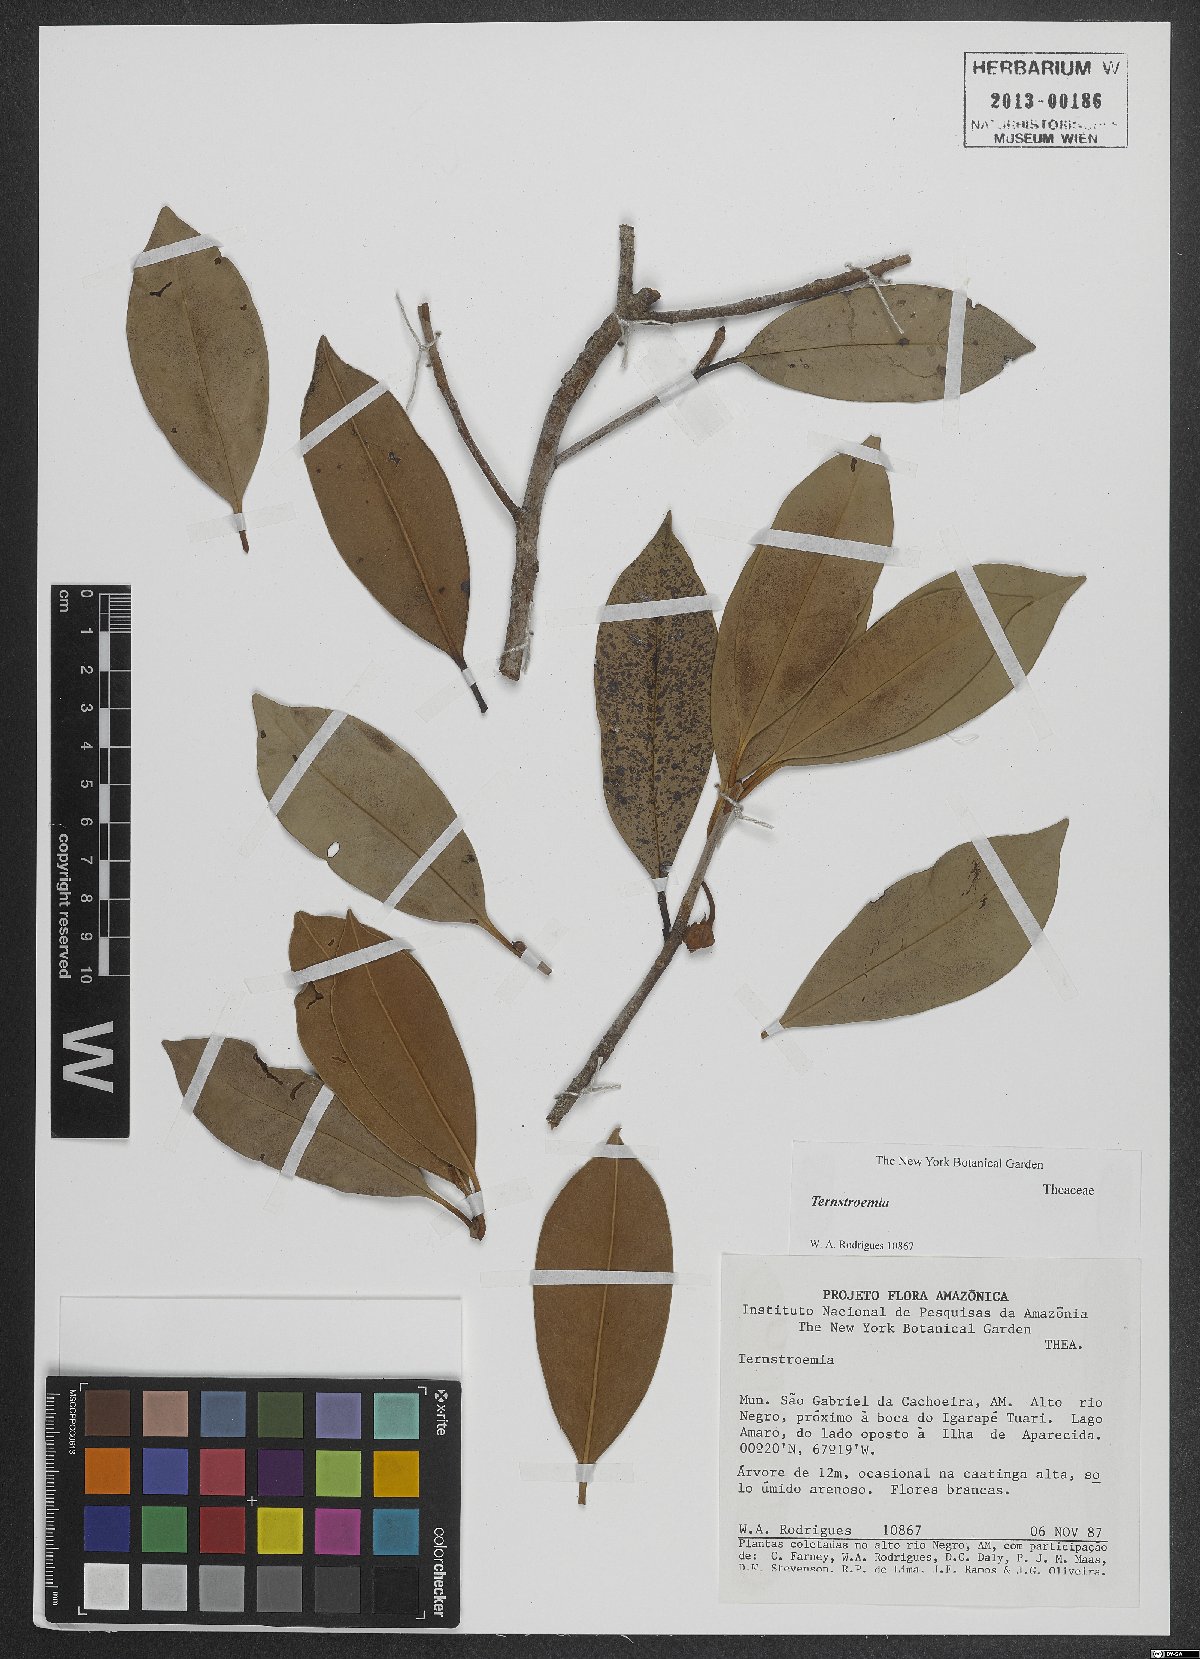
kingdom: Plantae
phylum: Tracheophyta
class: Magnoliopsida
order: Ericales
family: Pentaphylacaceae
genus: Ternstroemia
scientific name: Ternstroemia
